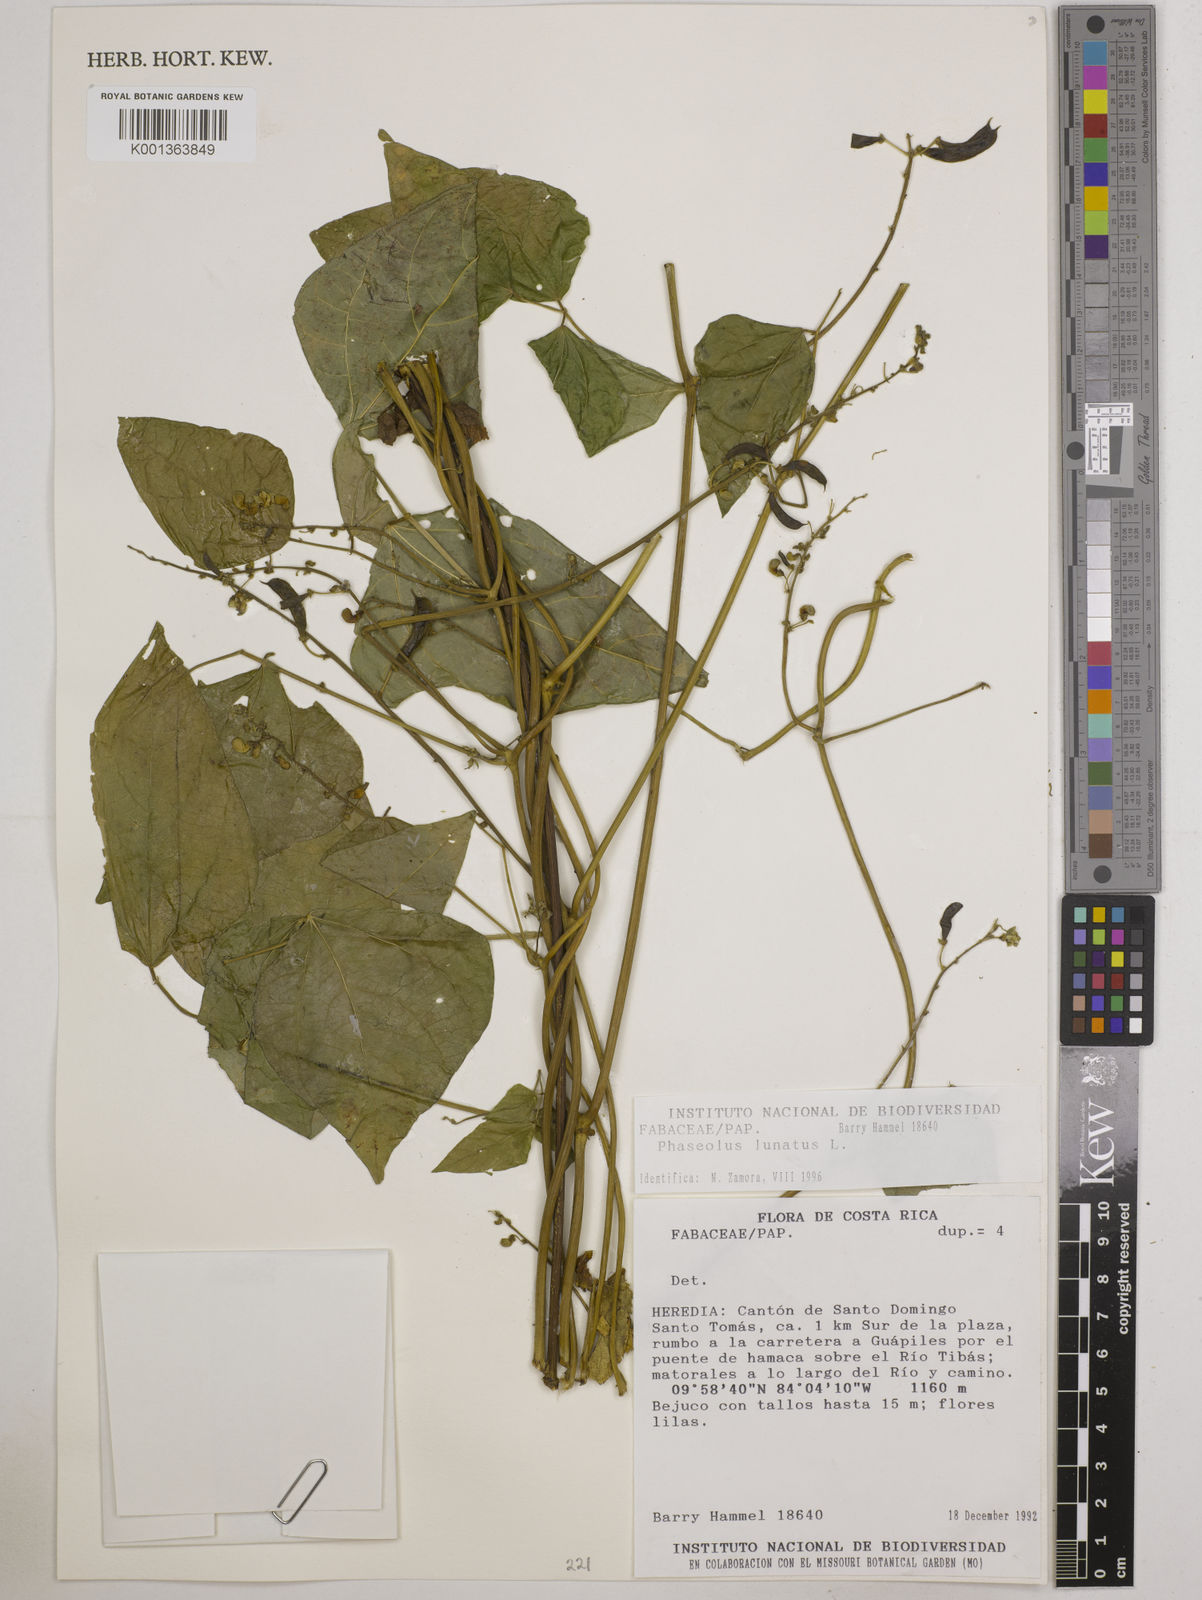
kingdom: Plantae
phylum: Tracheophyta
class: Magnoliopsida
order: Fabales
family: Fabaceae
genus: Phaseolus
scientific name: Phaseolus lunatus
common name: Sieva bean
